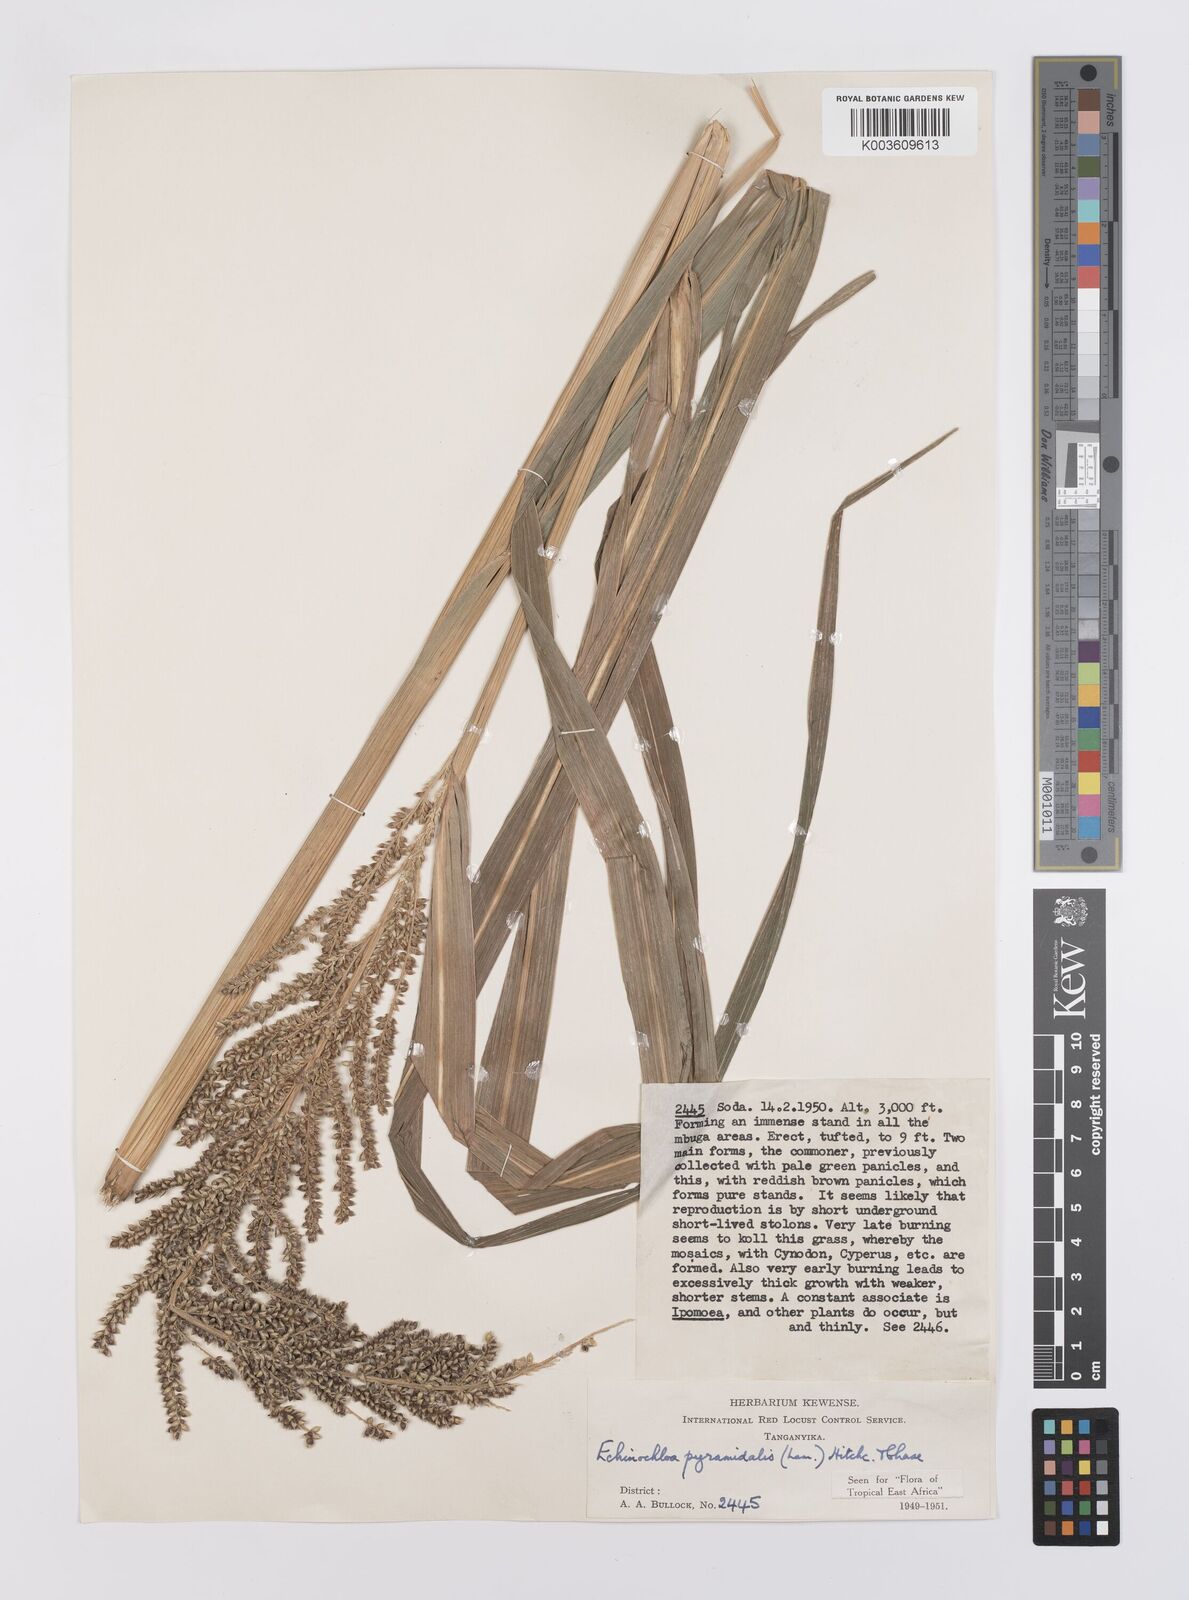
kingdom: Plantae
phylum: Tracheophyta
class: Liliopsida
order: Poales
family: Poaceae
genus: Echinochloa
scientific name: Echinochloa pyramidalis
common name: Antelope grass
